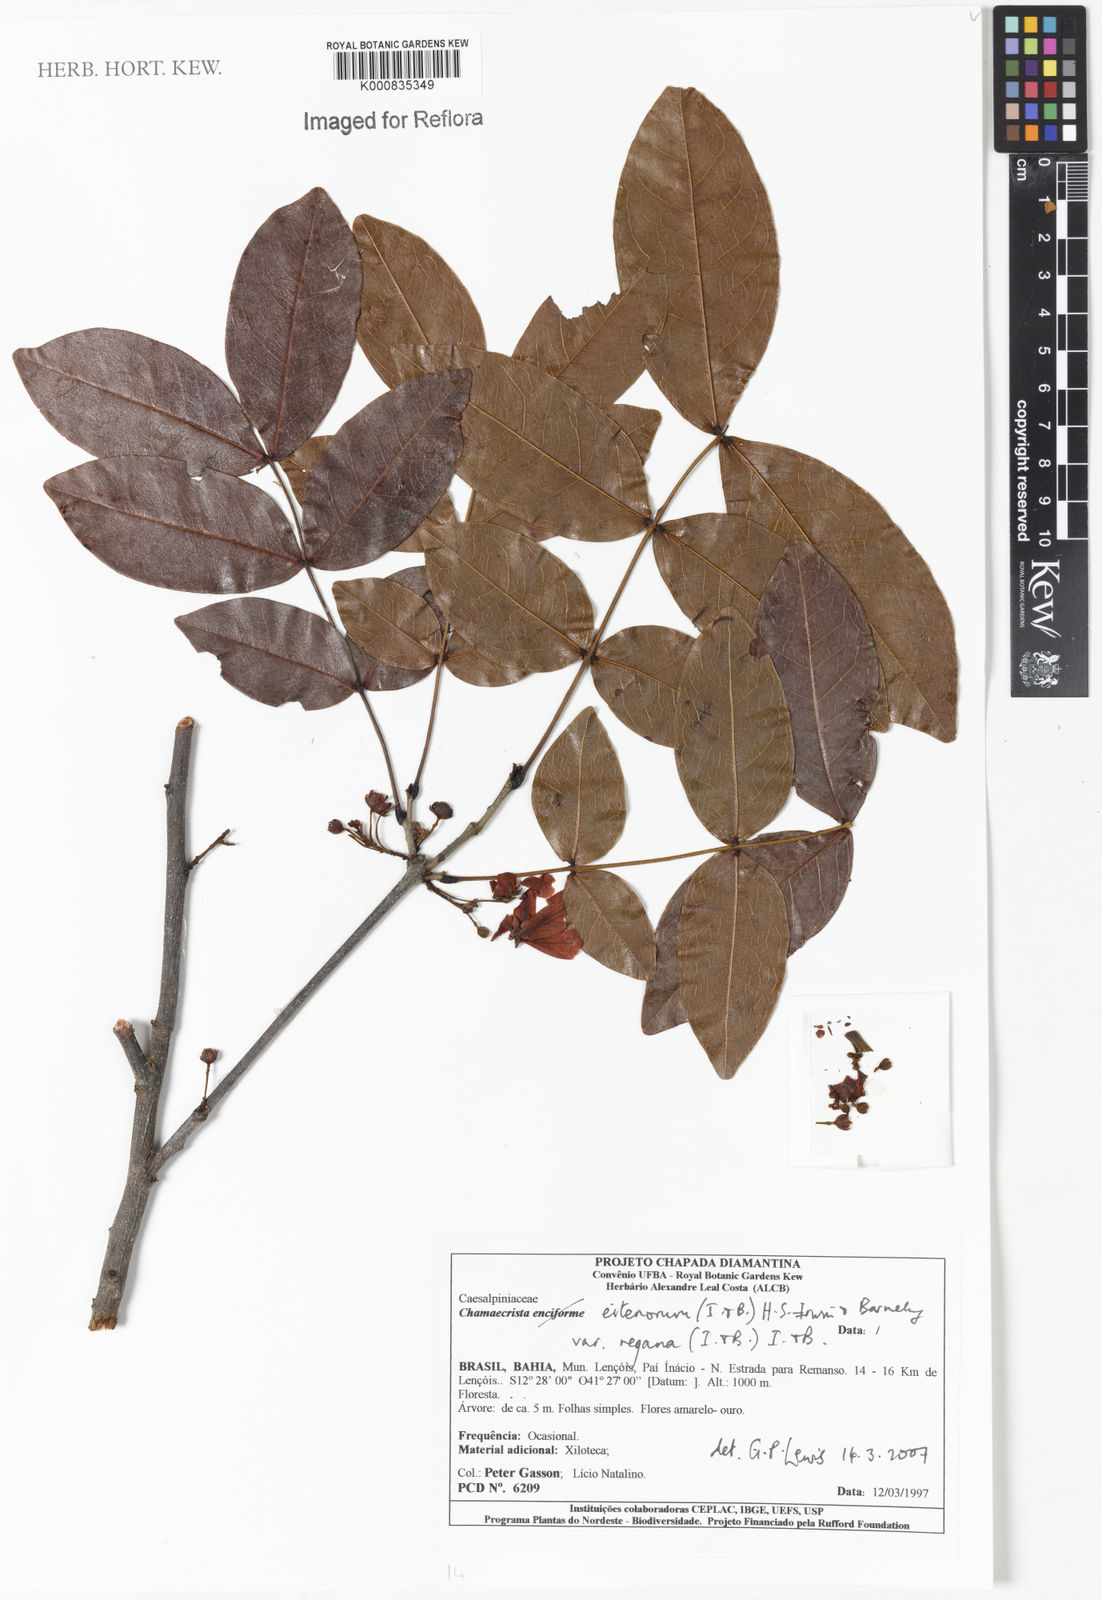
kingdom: Plantae
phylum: Tracheophyta
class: Magnoliopsida
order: Fabales
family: Fabaceae
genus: Chamaecrista
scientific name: Chamaecrista eitenorum
